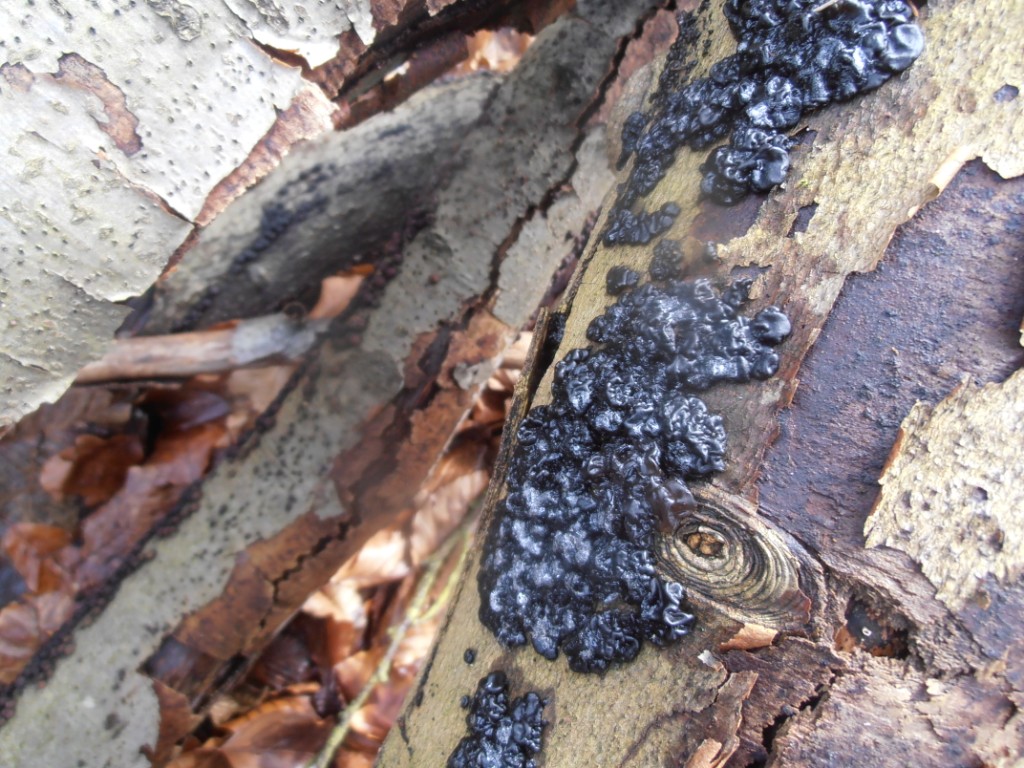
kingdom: Fungi
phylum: Basidiomycota
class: Agaricomycetes
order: Auriculariales
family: Auriculariaceae
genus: Exidia
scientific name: Exidia nigricans
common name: almindelig bævretop
